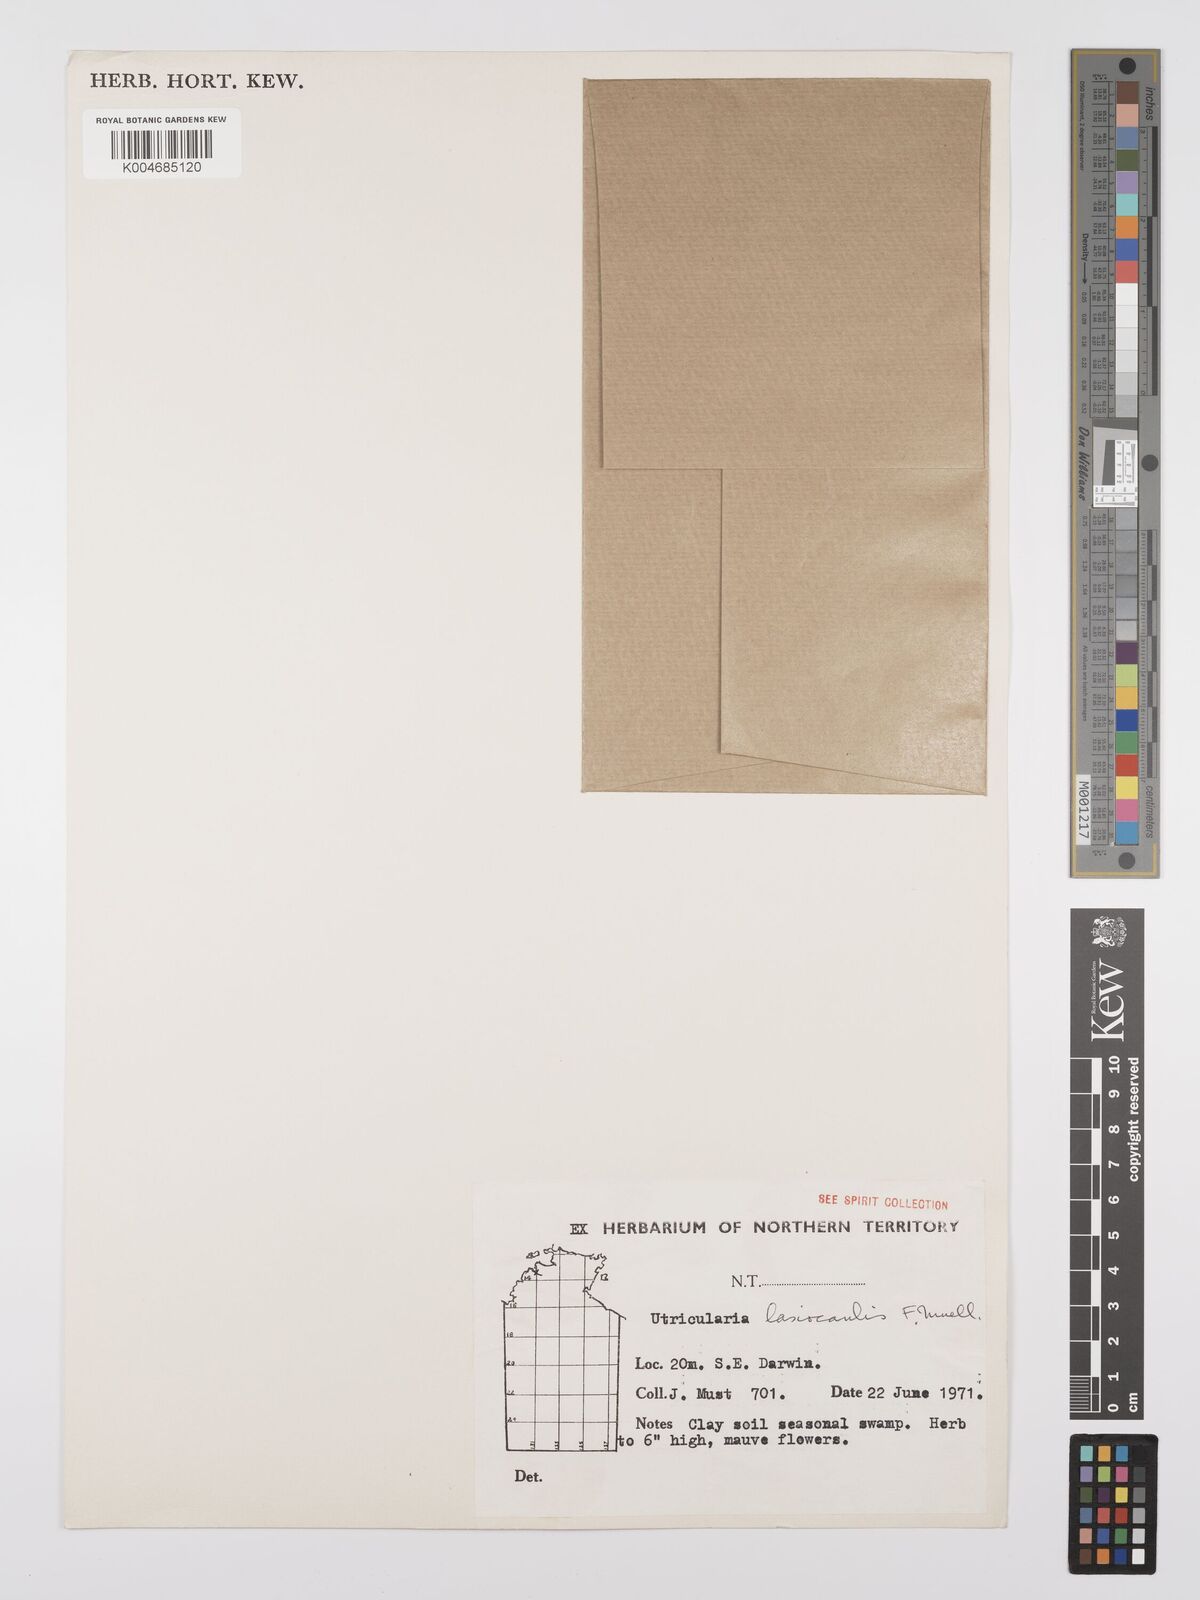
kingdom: Plantae
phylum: Tracheophyta
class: Magnoliopsida
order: Lamiales
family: Lentibulariaceae
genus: Utricularia
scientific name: Utricularia lasiocaulis
